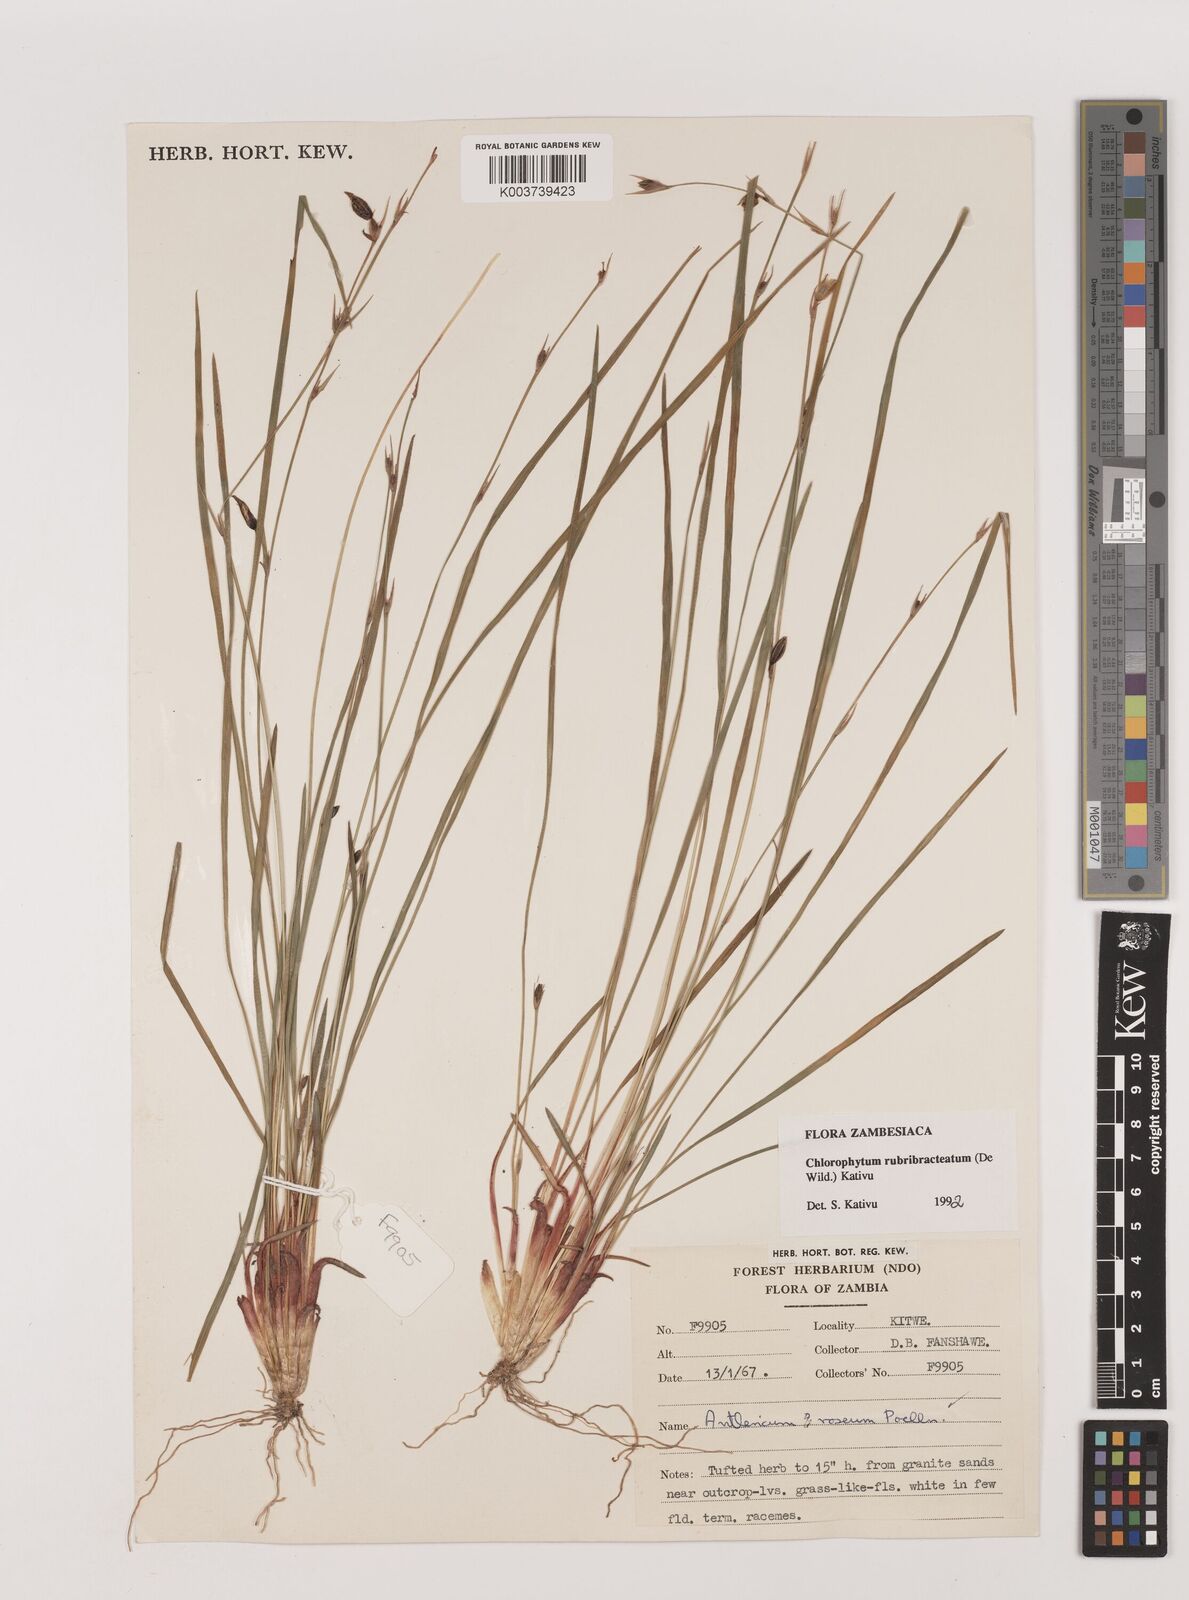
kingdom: Plantae
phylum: Tracheophyta
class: Liliopsida
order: Asparagales
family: Asparagaceae
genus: Chlorophytum
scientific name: Chlorophytum rubribracteatum
